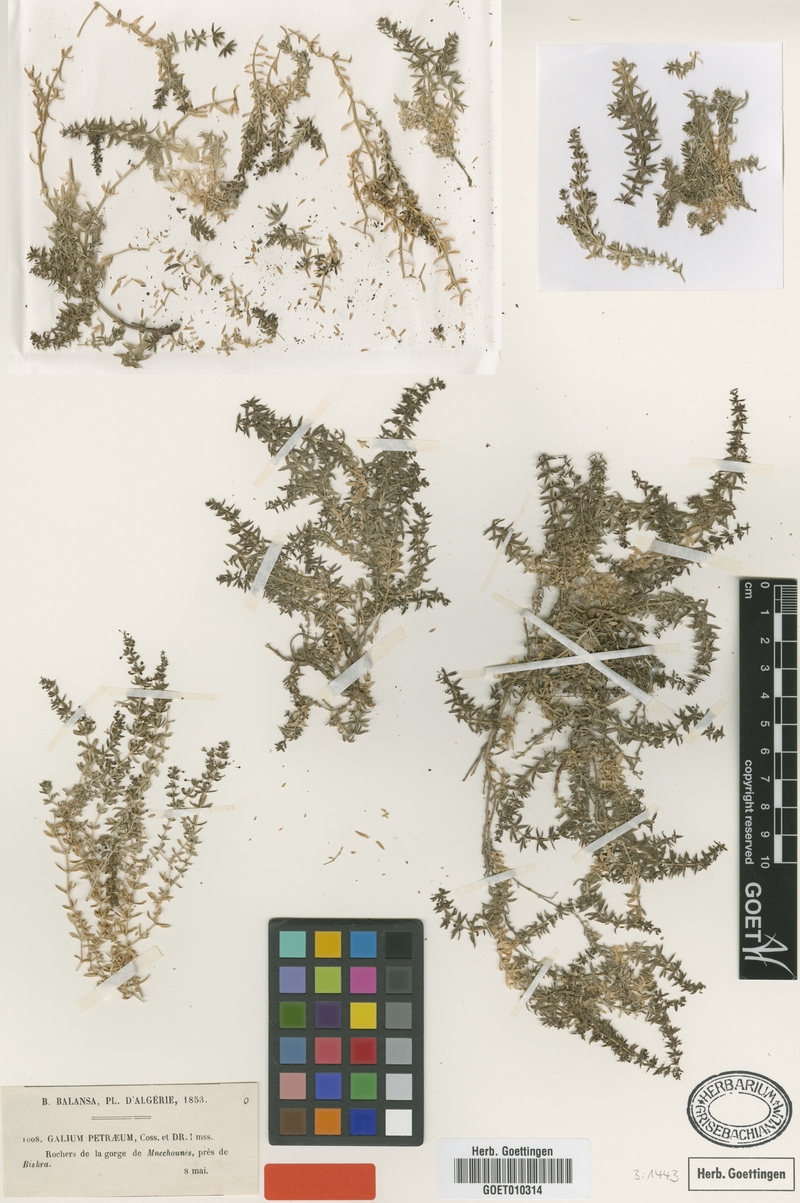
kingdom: Plantae
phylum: Tracheophyta
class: Magnoliopsida
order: Gentianales
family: Rubiaceae
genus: Galium
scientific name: Galium cossonianum
